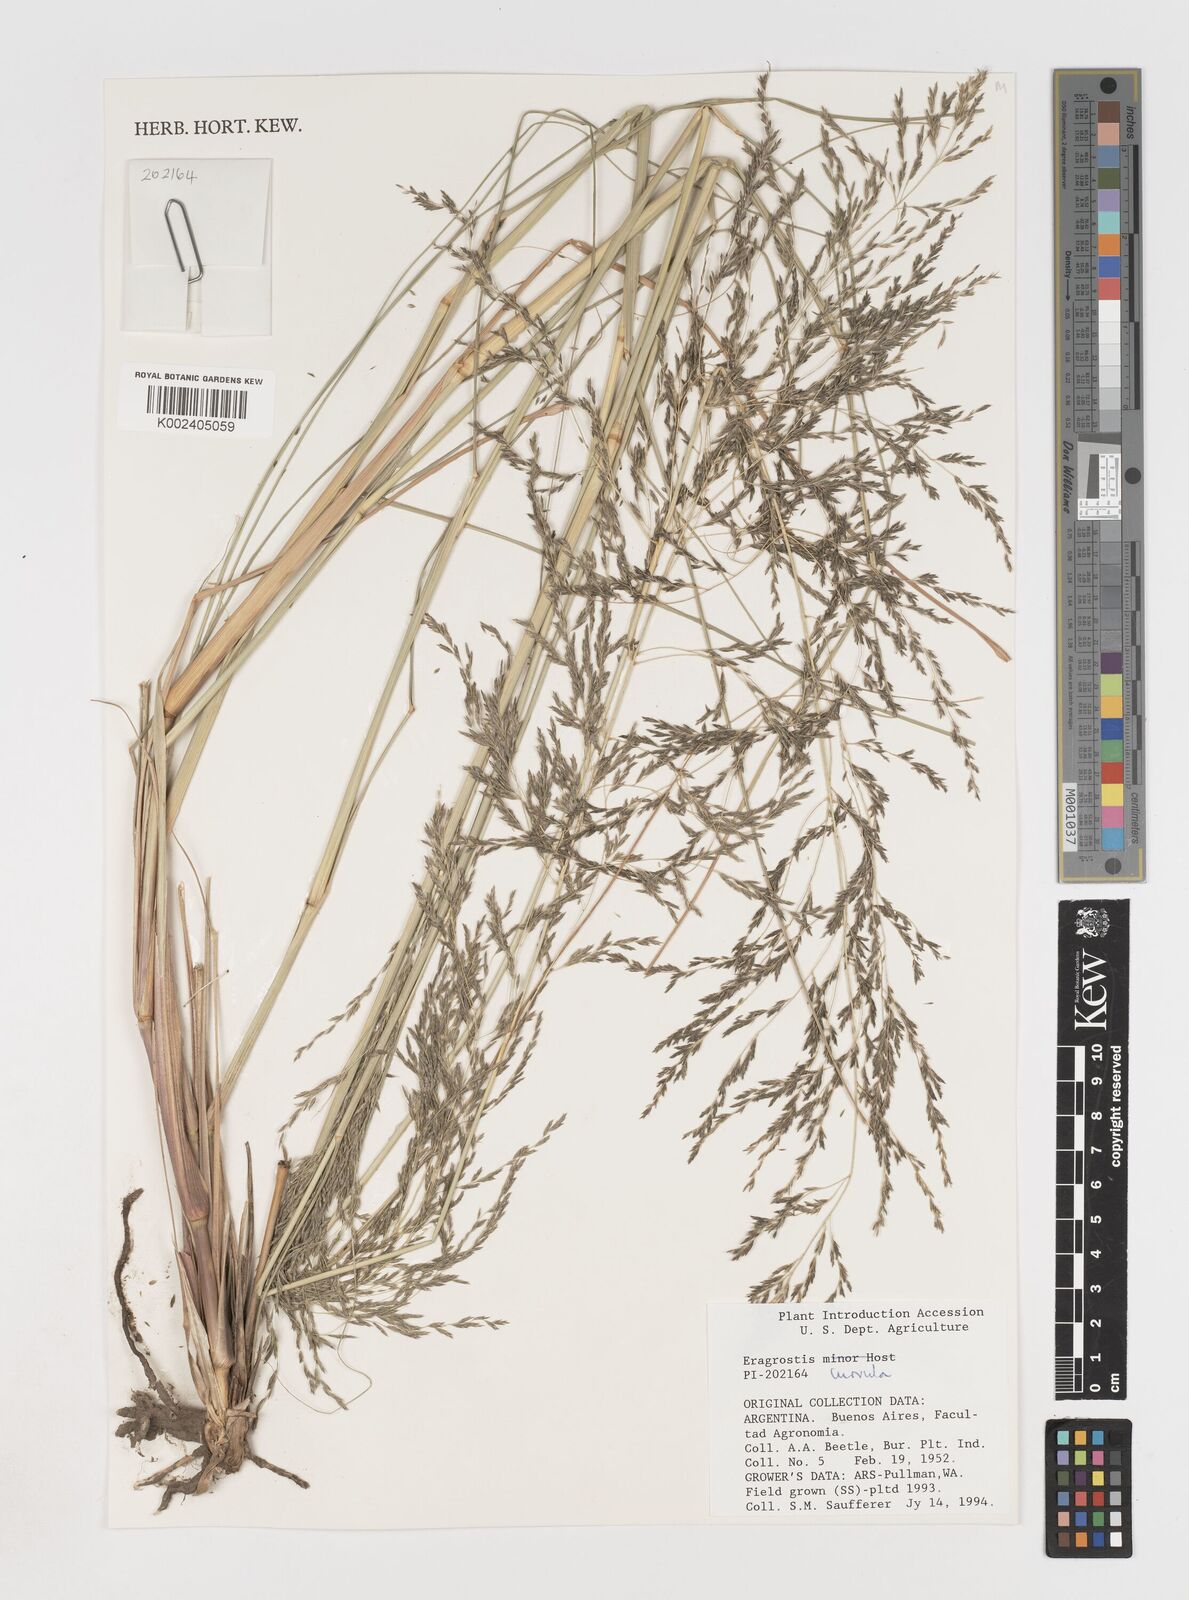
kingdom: Plantae
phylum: Tracheophyta
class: Liliopsida
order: Poales
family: Poaceae
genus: Eragrostis
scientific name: Eragrostis curvula
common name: African love-grass
